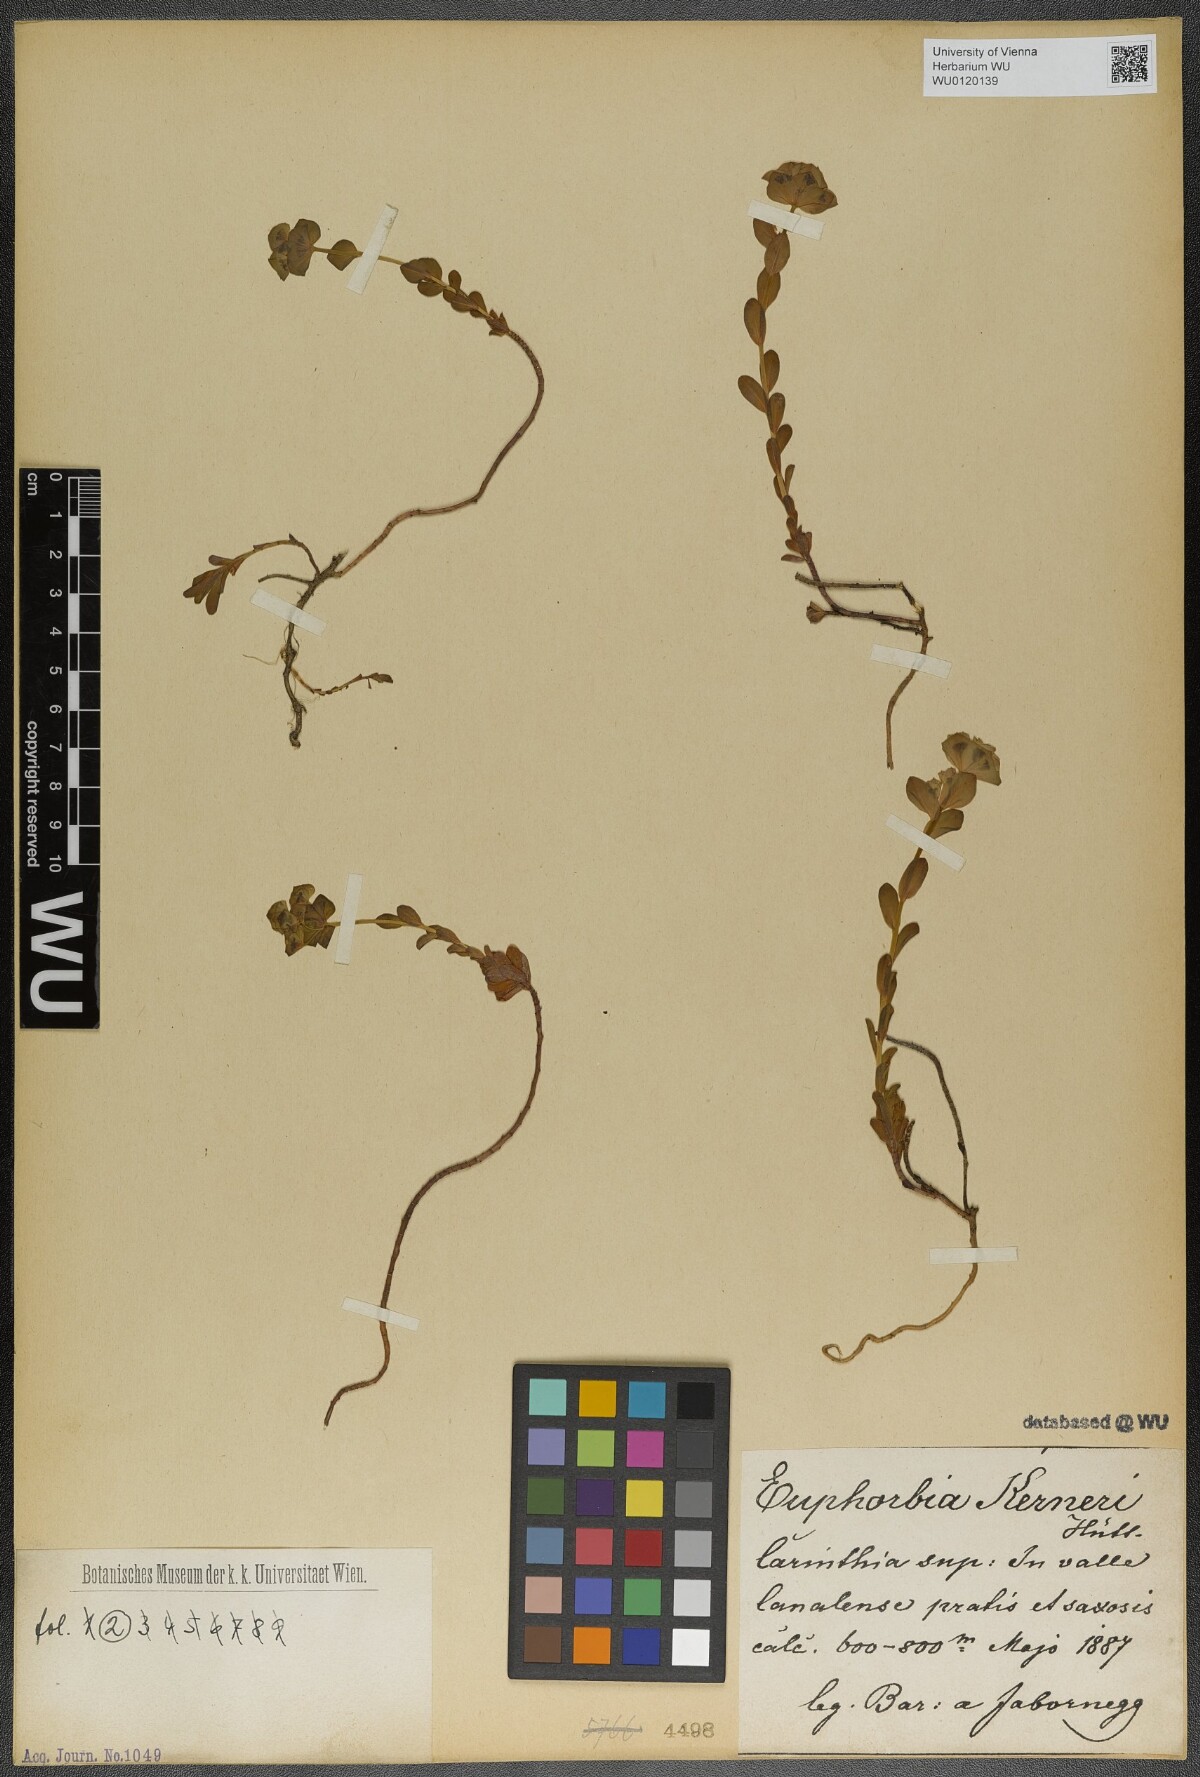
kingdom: Plantae
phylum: Tracheophyta
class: Magnoliopsida
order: Malpighiales
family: Euphorbiaceae
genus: Euphorbia
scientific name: Euphorbia kerneri
